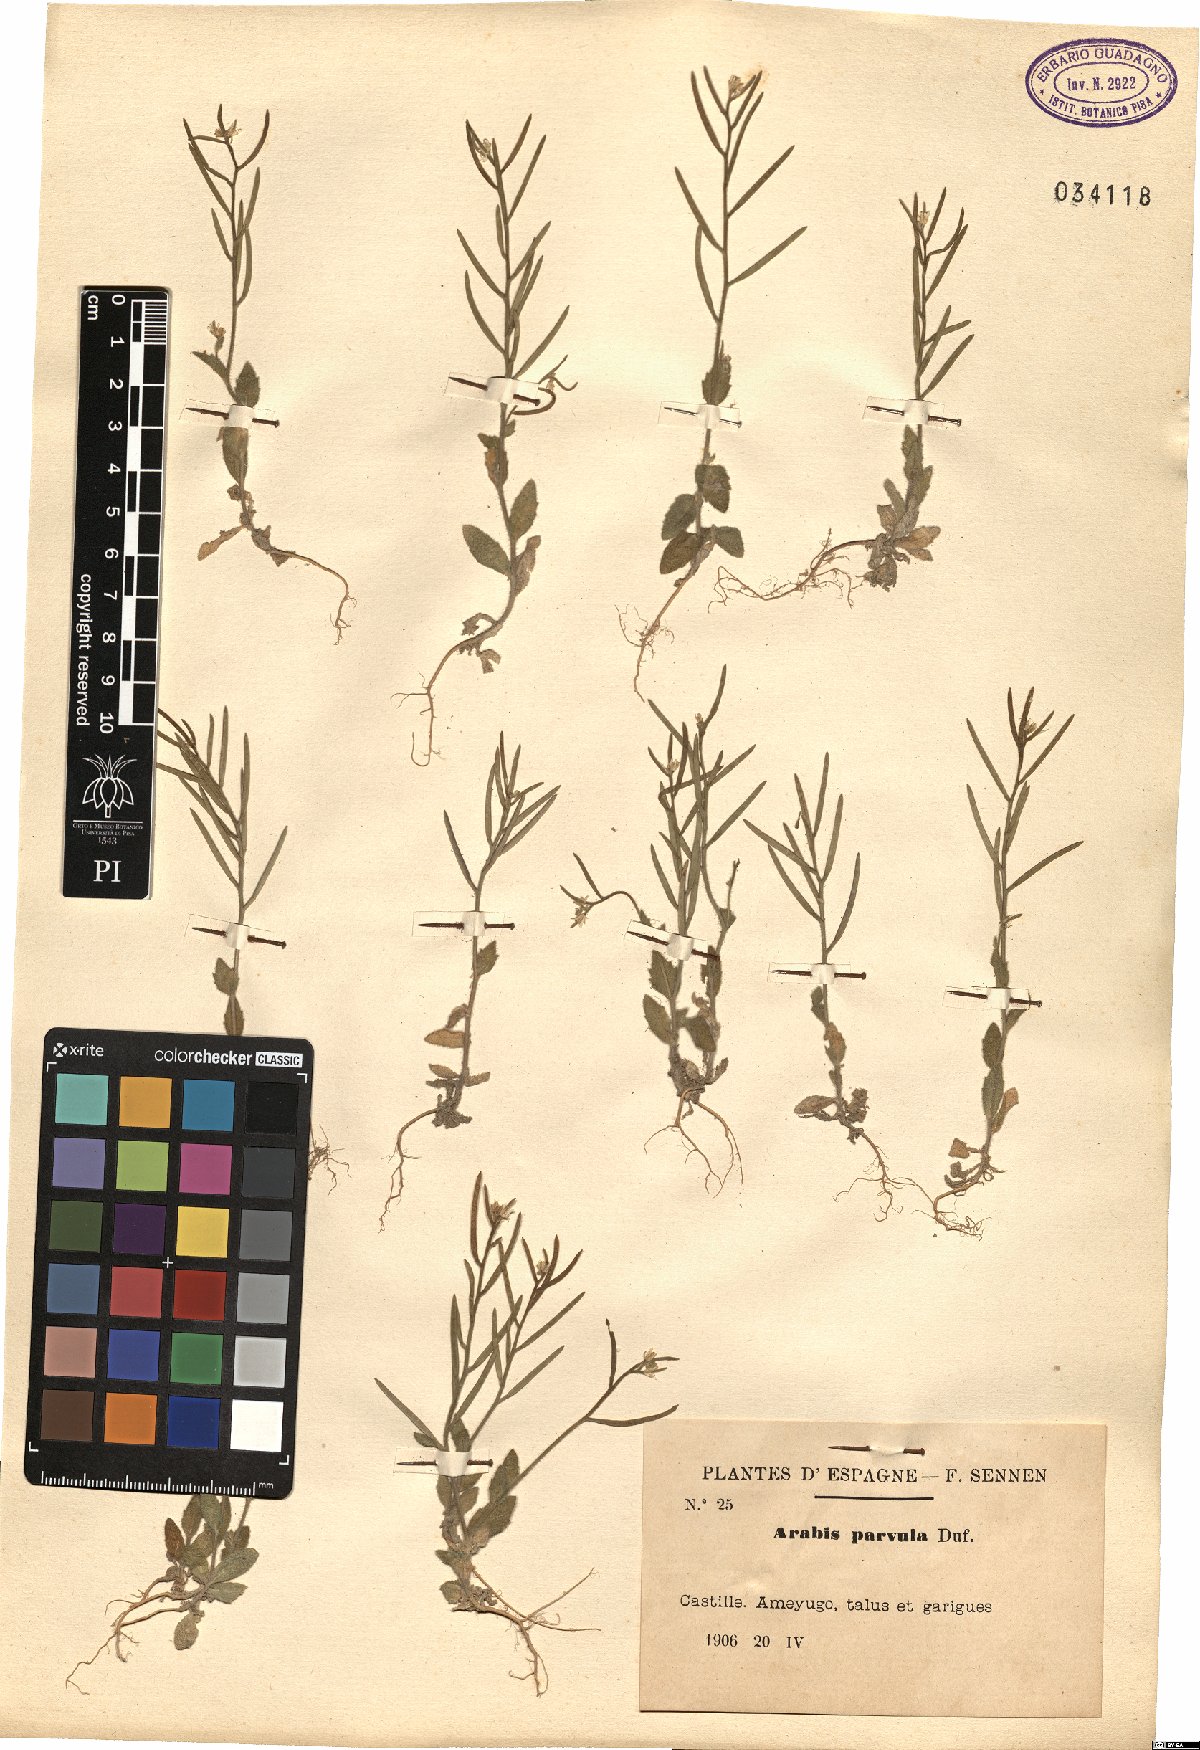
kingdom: Plantae
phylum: Tracheophyta
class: Magnoliopsida
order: Brassicales
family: Brassicaceae
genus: Arabis
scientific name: Arabis parvula
